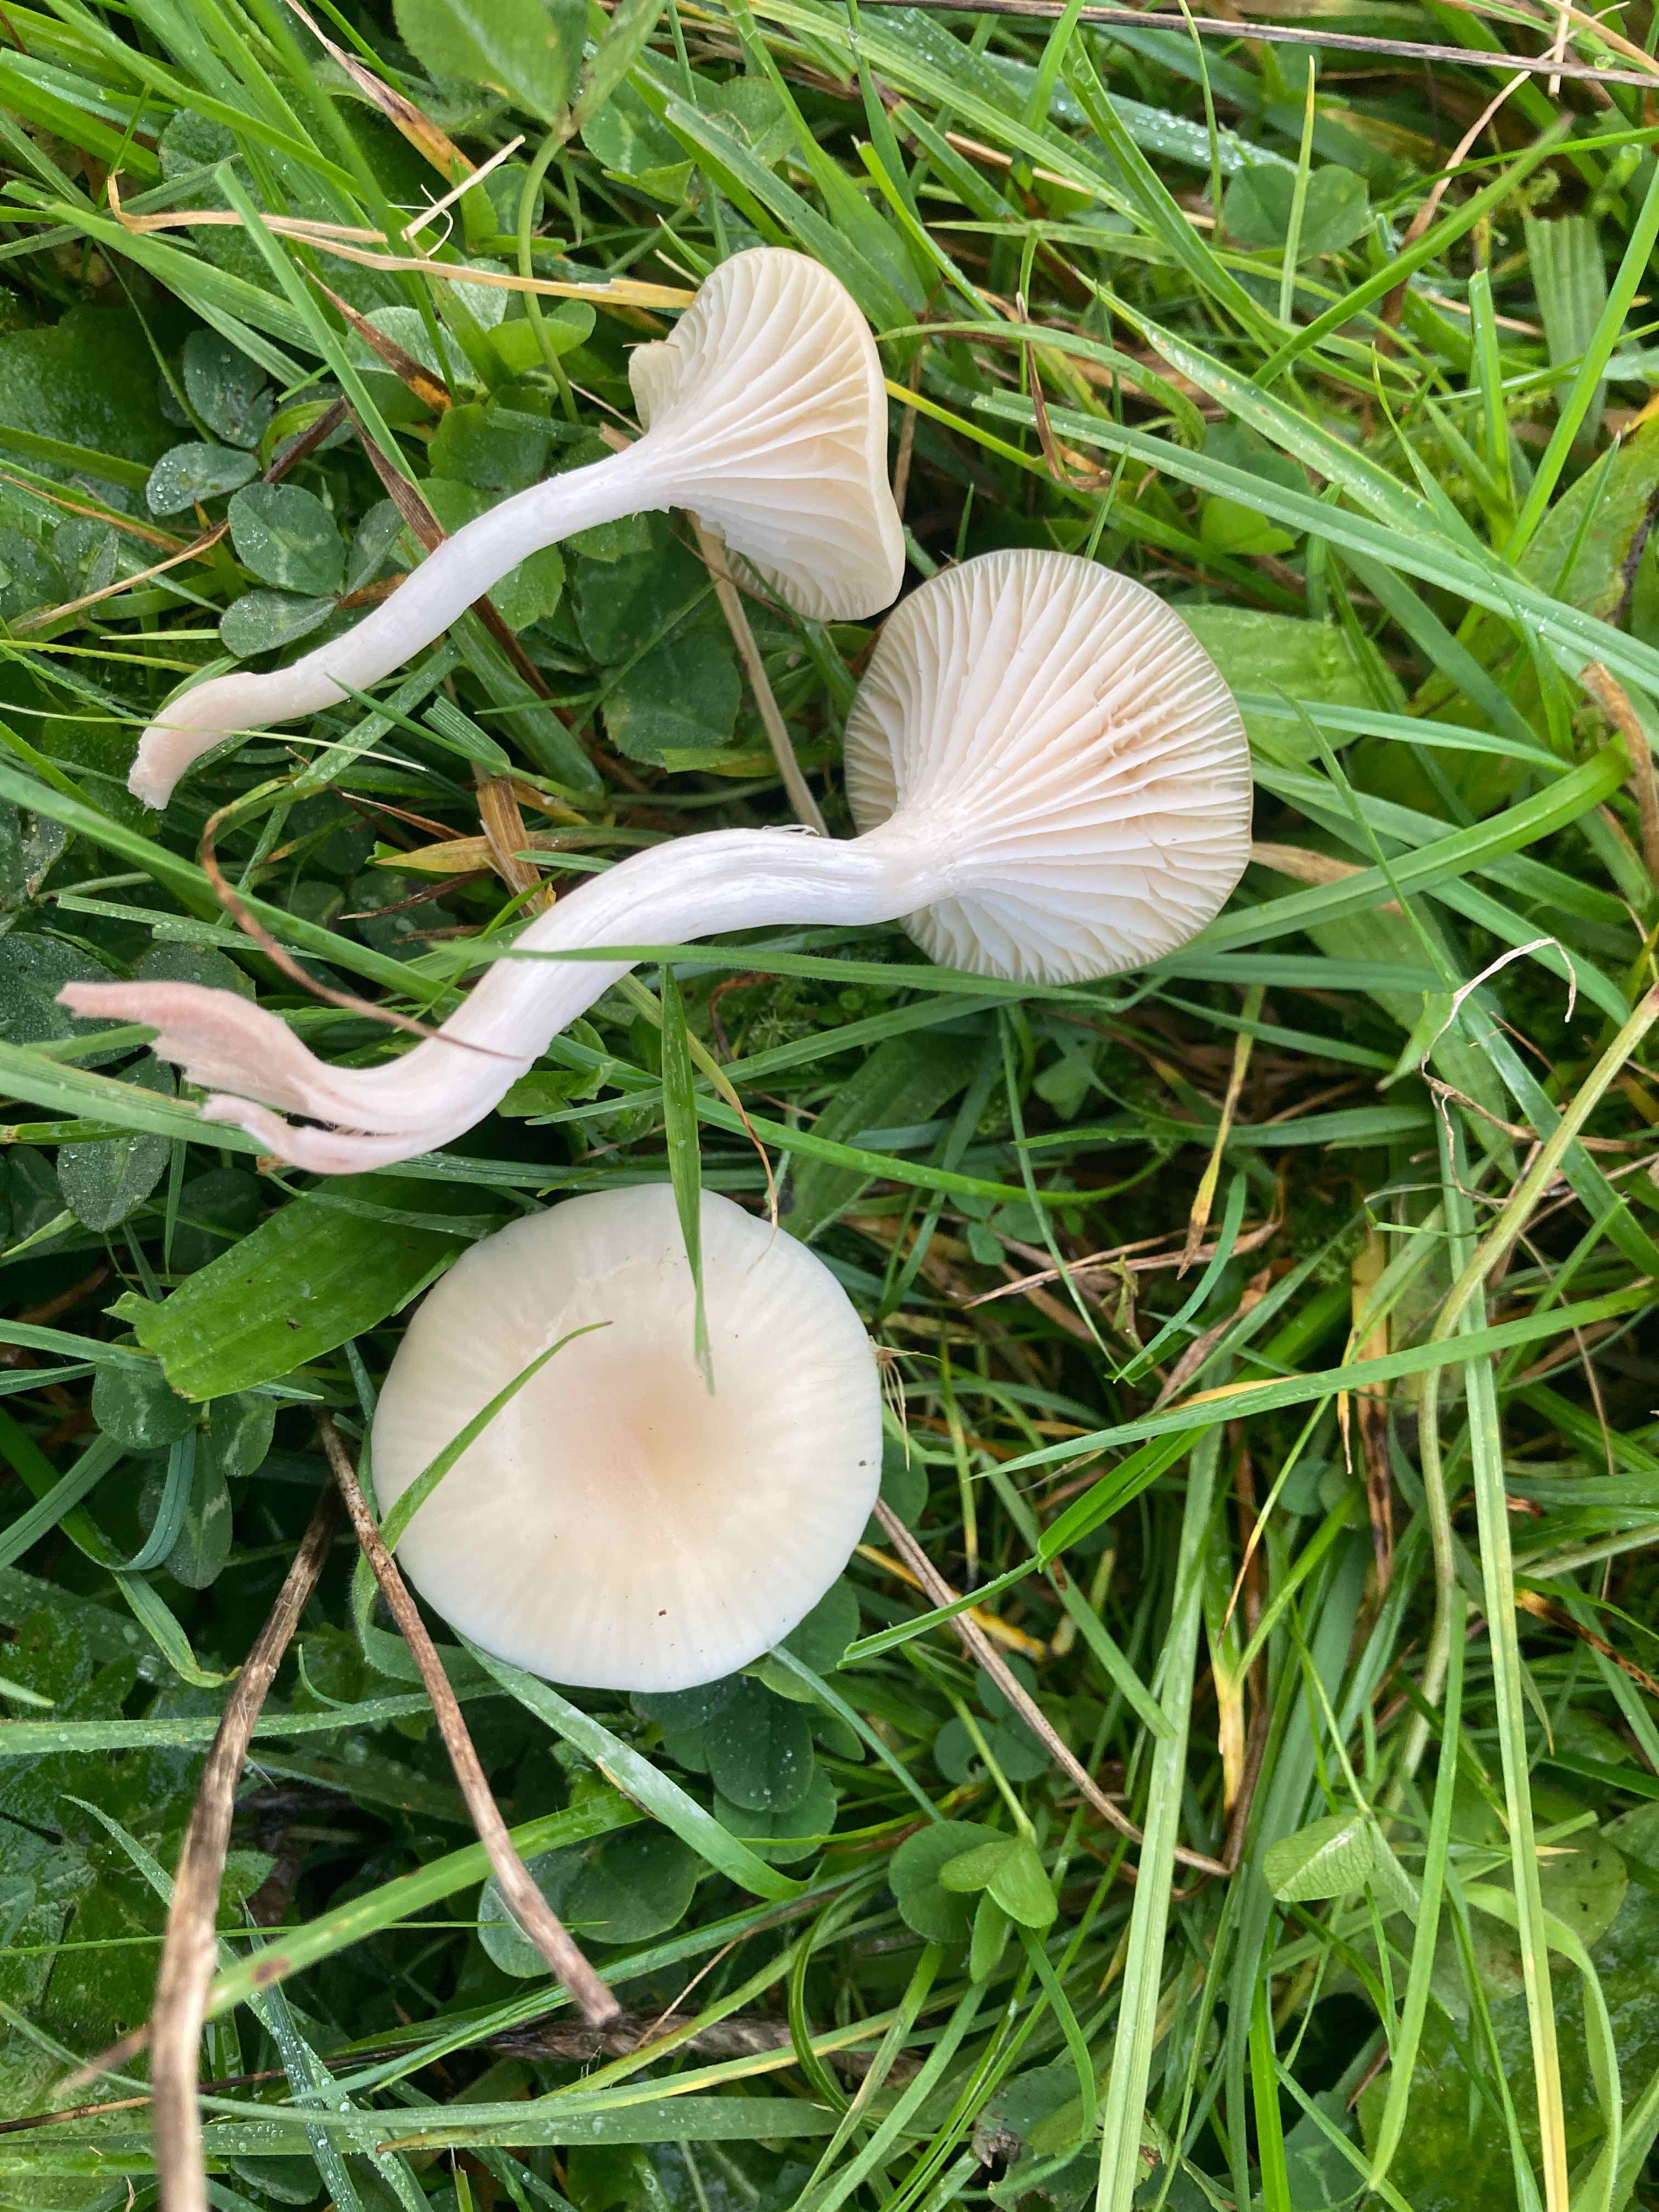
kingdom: Fungi
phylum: Basidiomycota
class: Agaricomycetes
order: Agaricales
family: Hygrophoraceae
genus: Cuphophyllus
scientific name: Cuphophyllus
